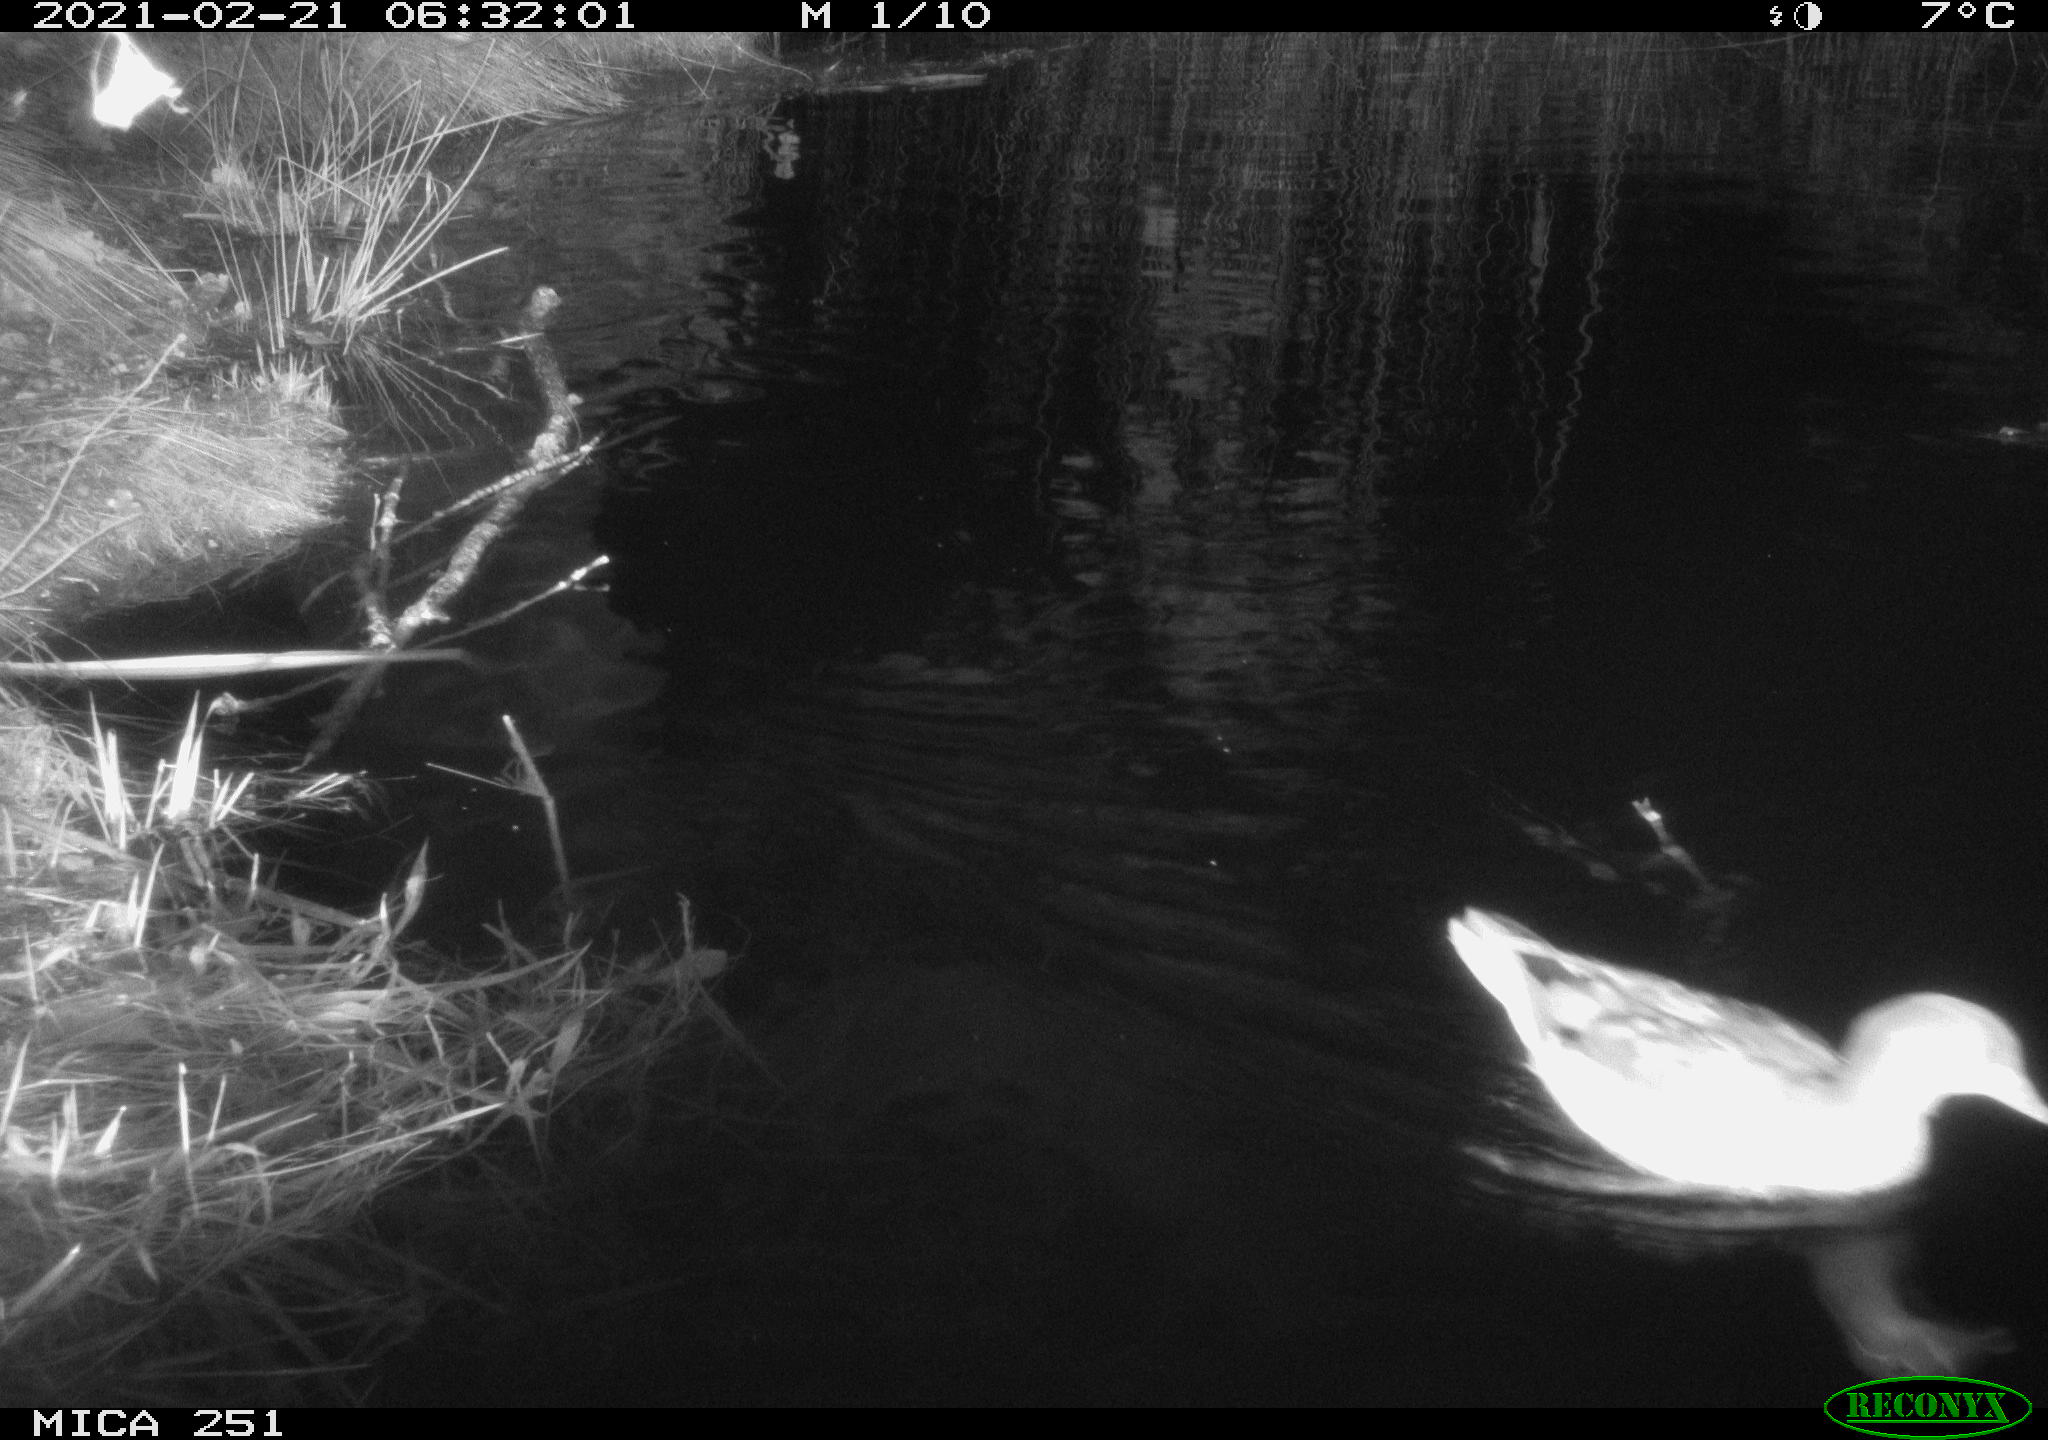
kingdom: Animalia
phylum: Chordata
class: Aves
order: Anseriformes
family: Anatidae
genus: Mareca
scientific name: Mareca strepera
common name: Gadwall
